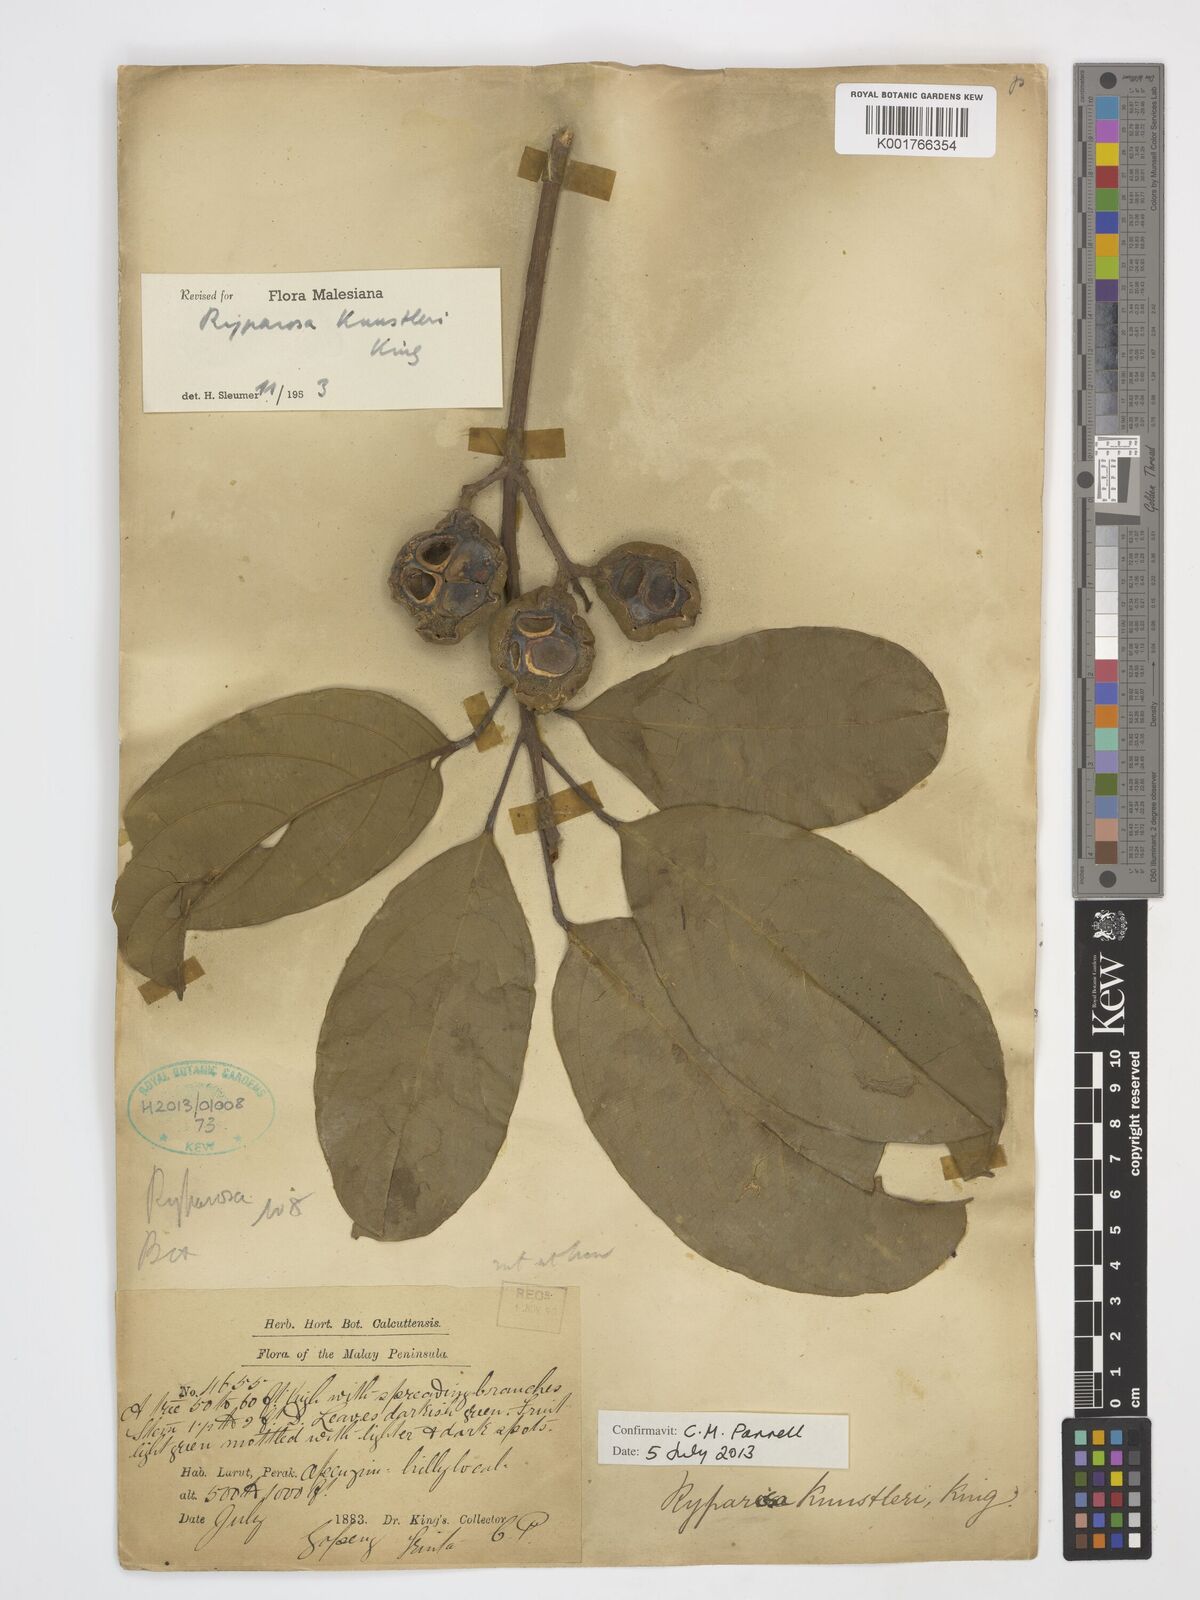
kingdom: Plantae
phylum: Tracheophyta
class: Magnoliopsida
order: Malpighiales
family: Achariaceae
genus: Ryparosa
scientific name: Ryparosa kunstleri
